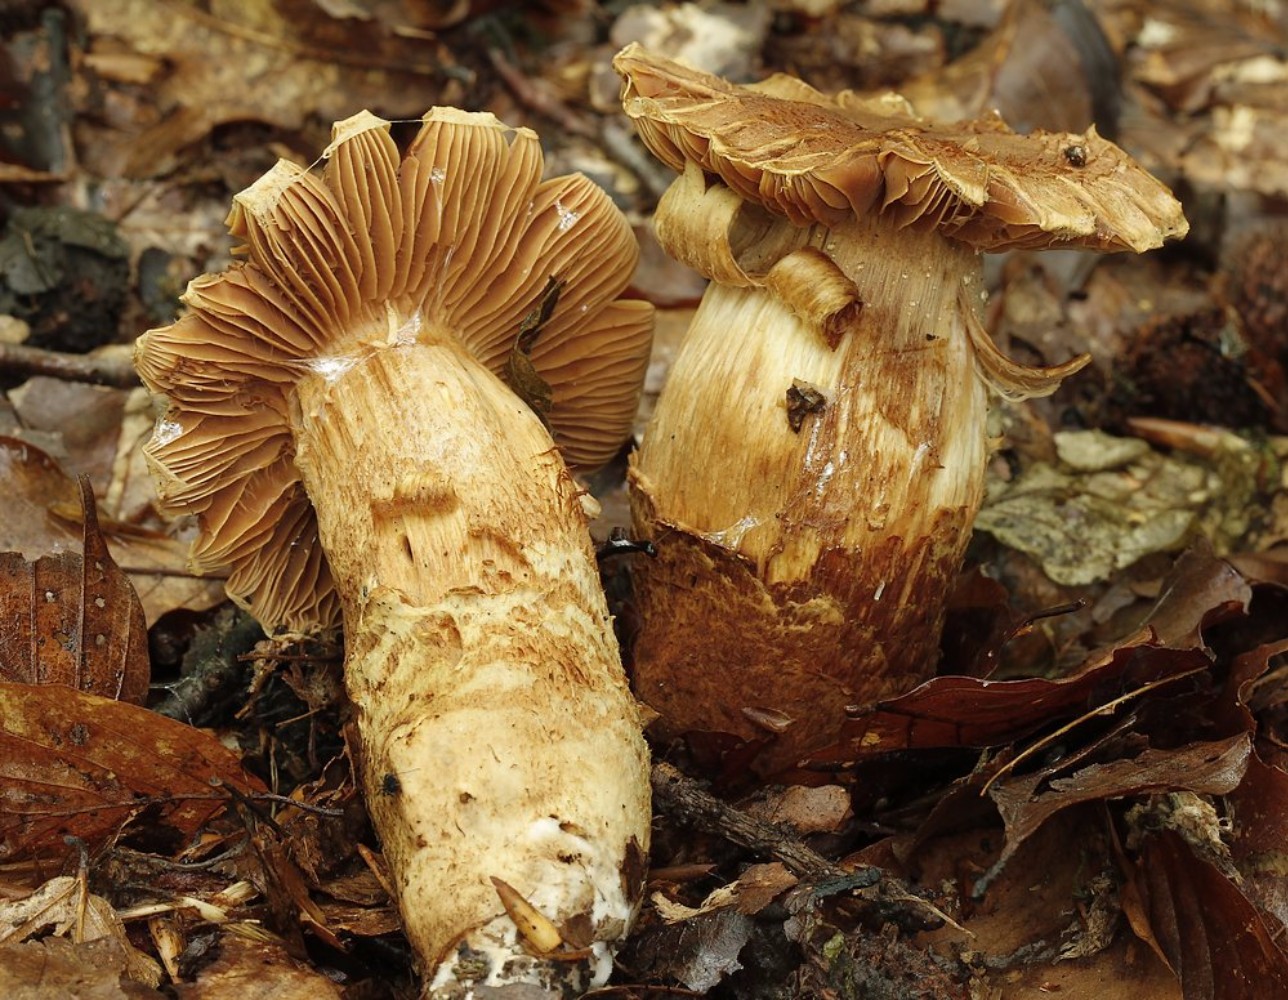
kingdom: Fungi
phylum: Basidiomycota
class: Agaricomycetes
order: Agaricales
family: Cortinariaceae
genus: Cortinarius
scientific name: Cortinarius
